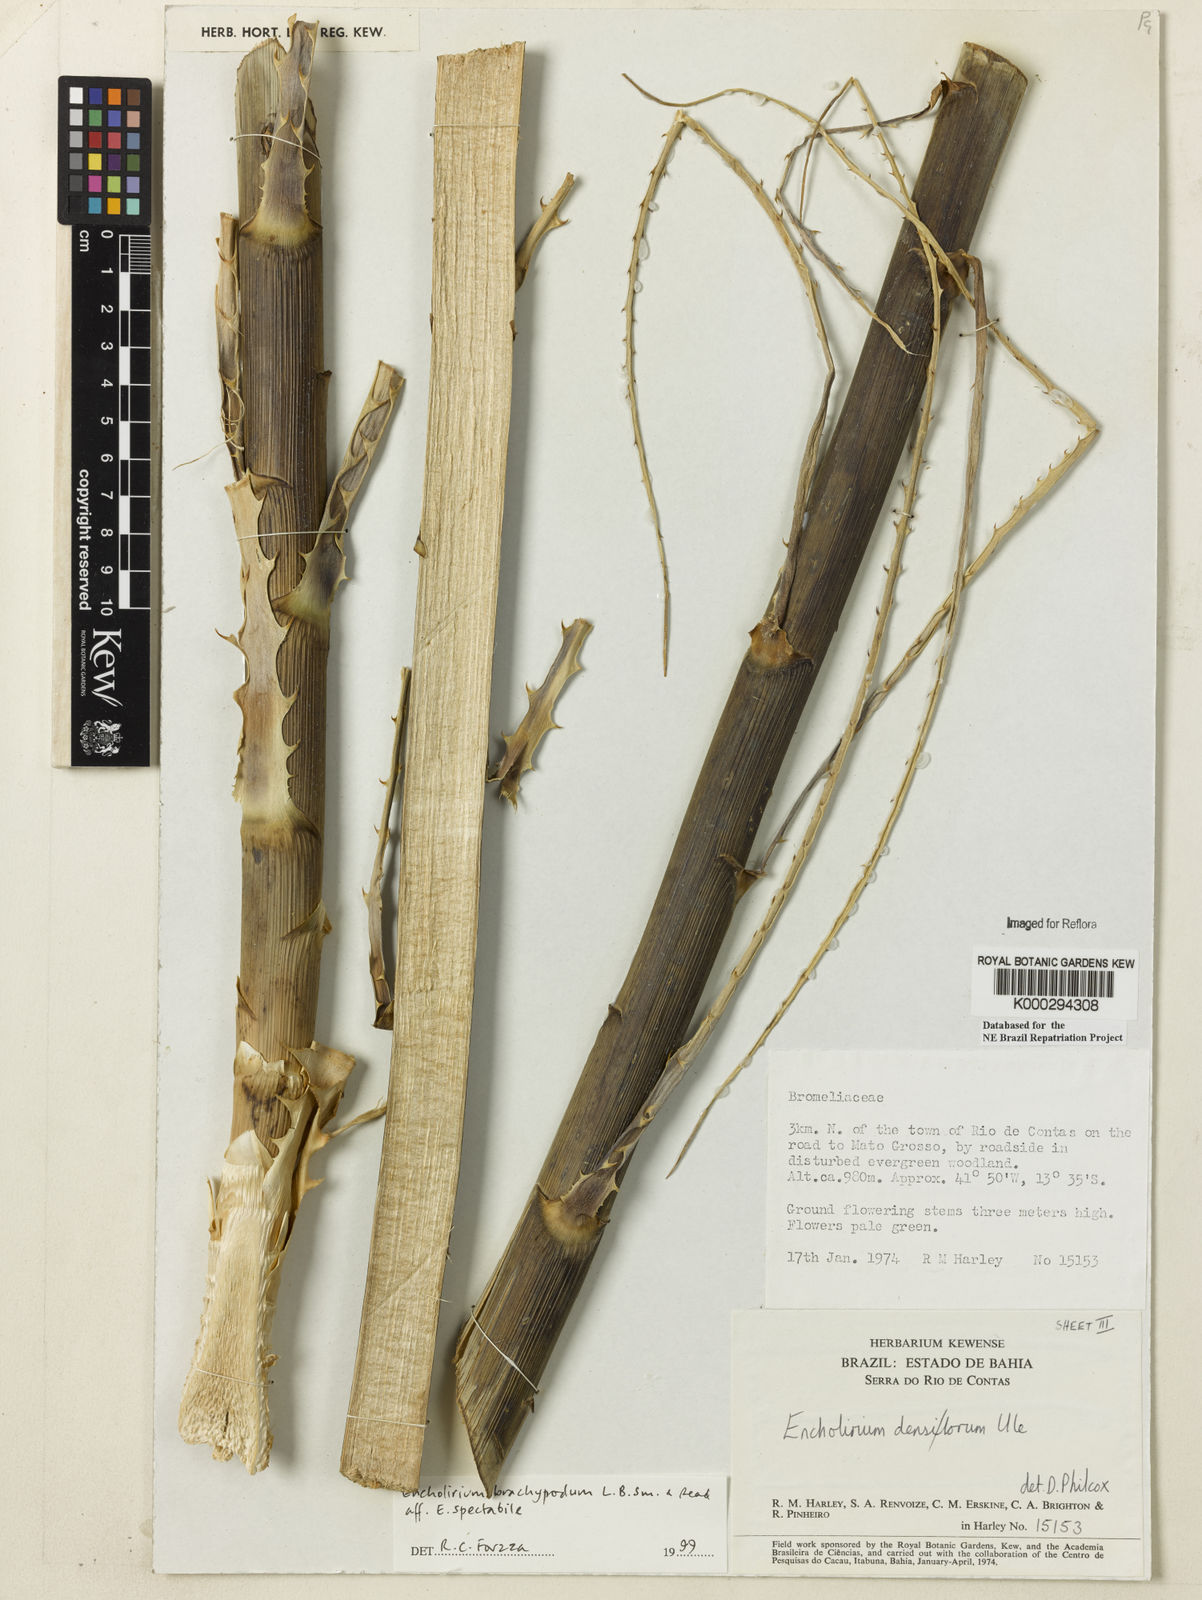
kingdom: Plantae
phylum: Tracheophyta
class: Liliopsida
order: Poales
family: Bromeliaceae
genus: Encholirium
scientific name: Encholirium brachypodum
